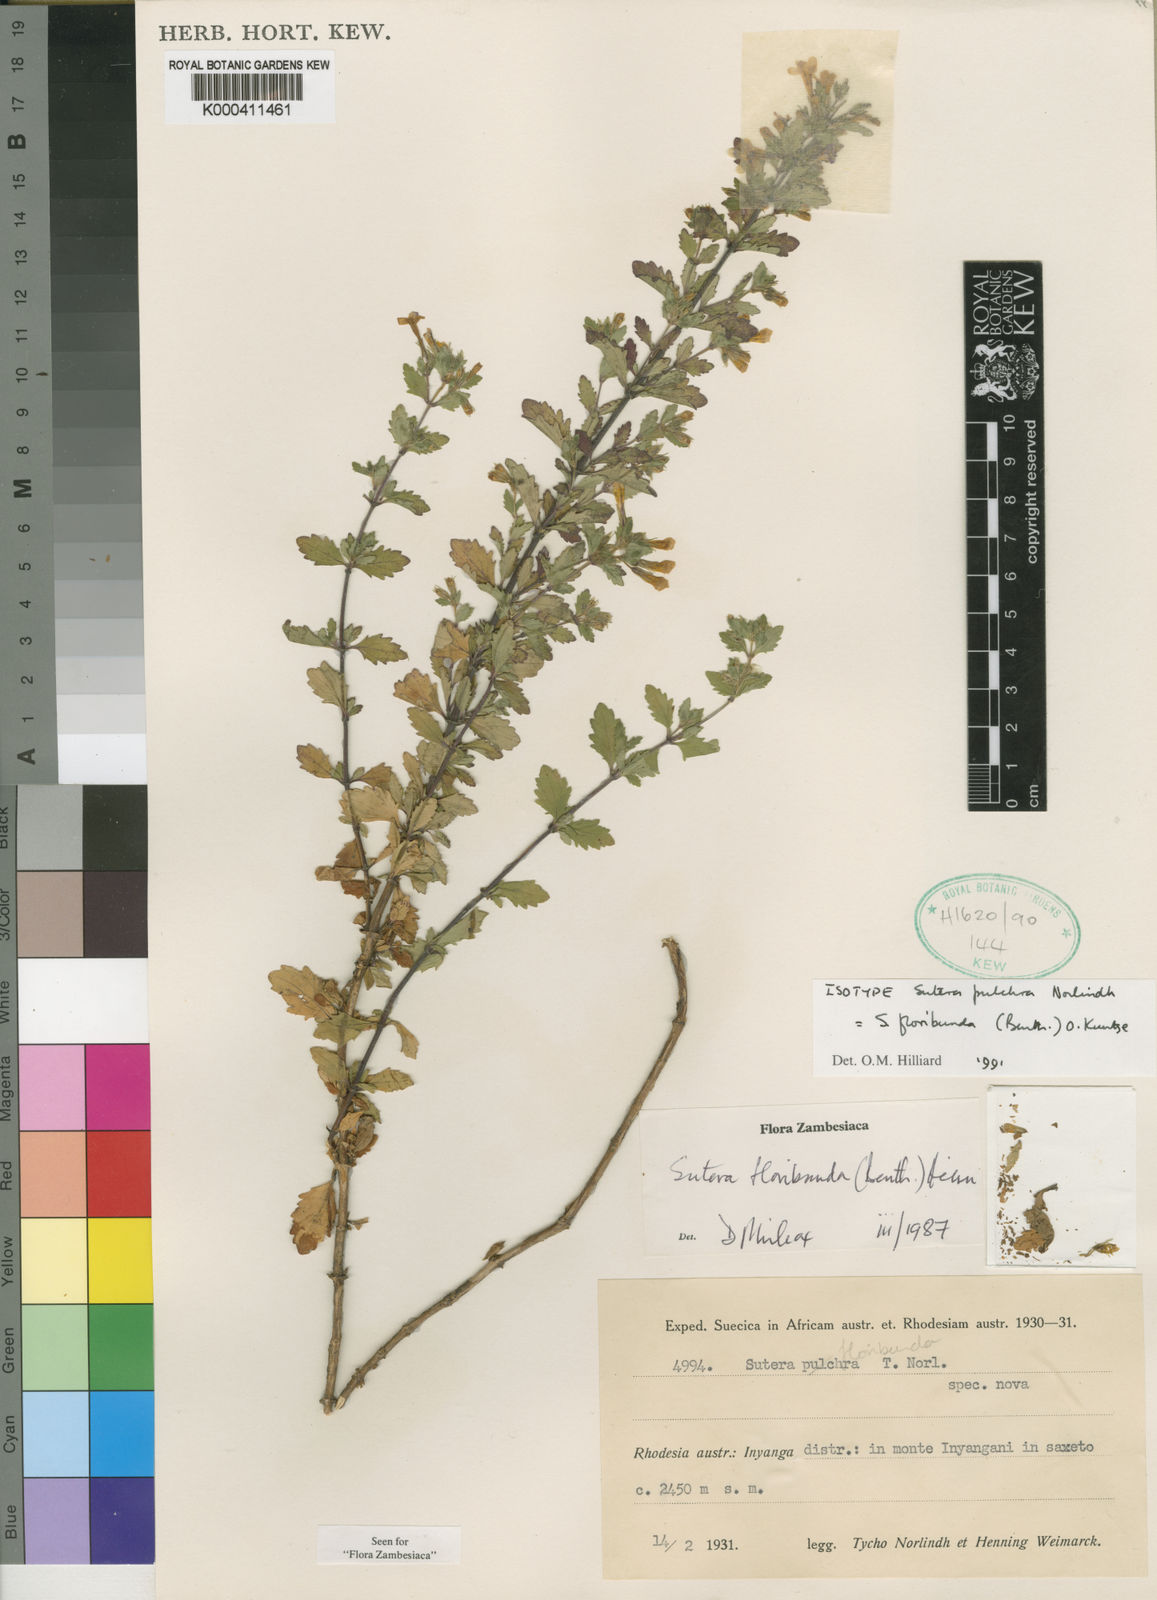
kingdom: Plantae
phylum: Tracheophyta
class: Magnoliopsida
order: Lamiales
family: Scrophulariaceae
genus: Chaenostoma
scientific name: Chaenostoma floribundum
